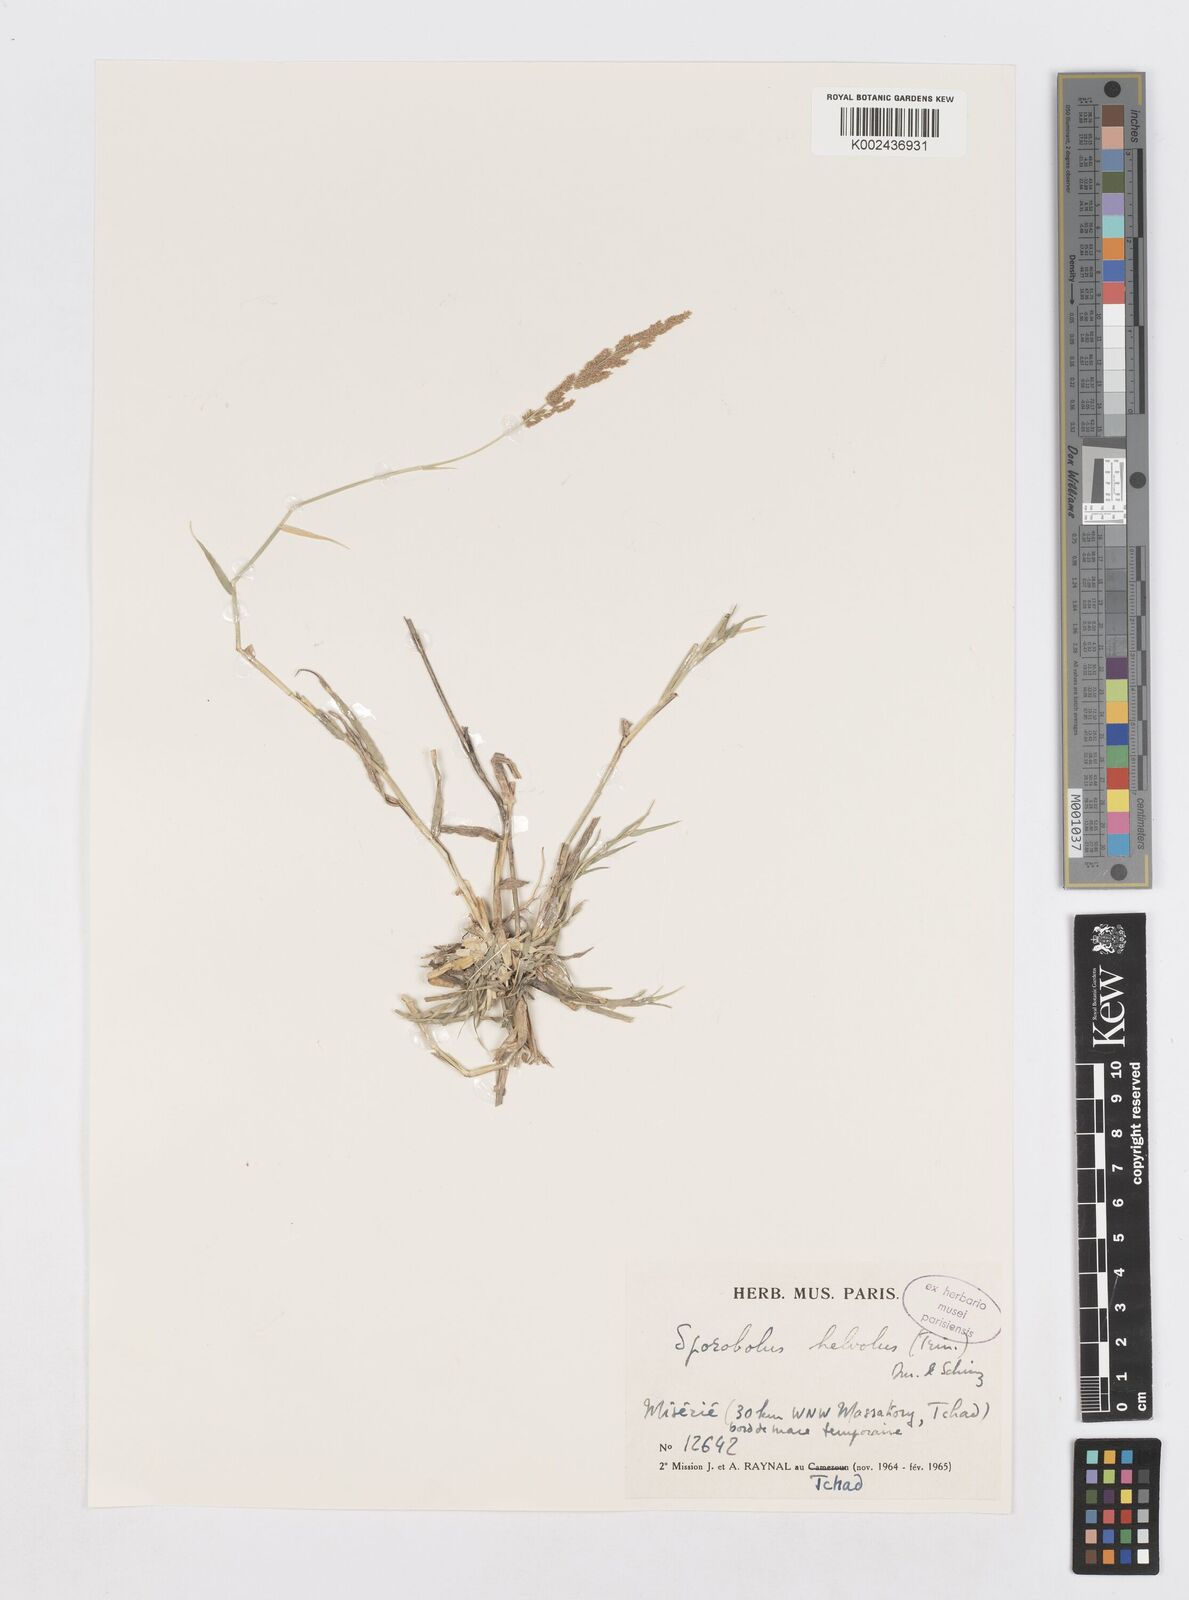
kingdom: Plantae
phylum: Tracheophyta
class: Liliopsida
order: Poales
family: Poaceae
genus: Sporobolus
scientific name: Sporobolus helvolus
